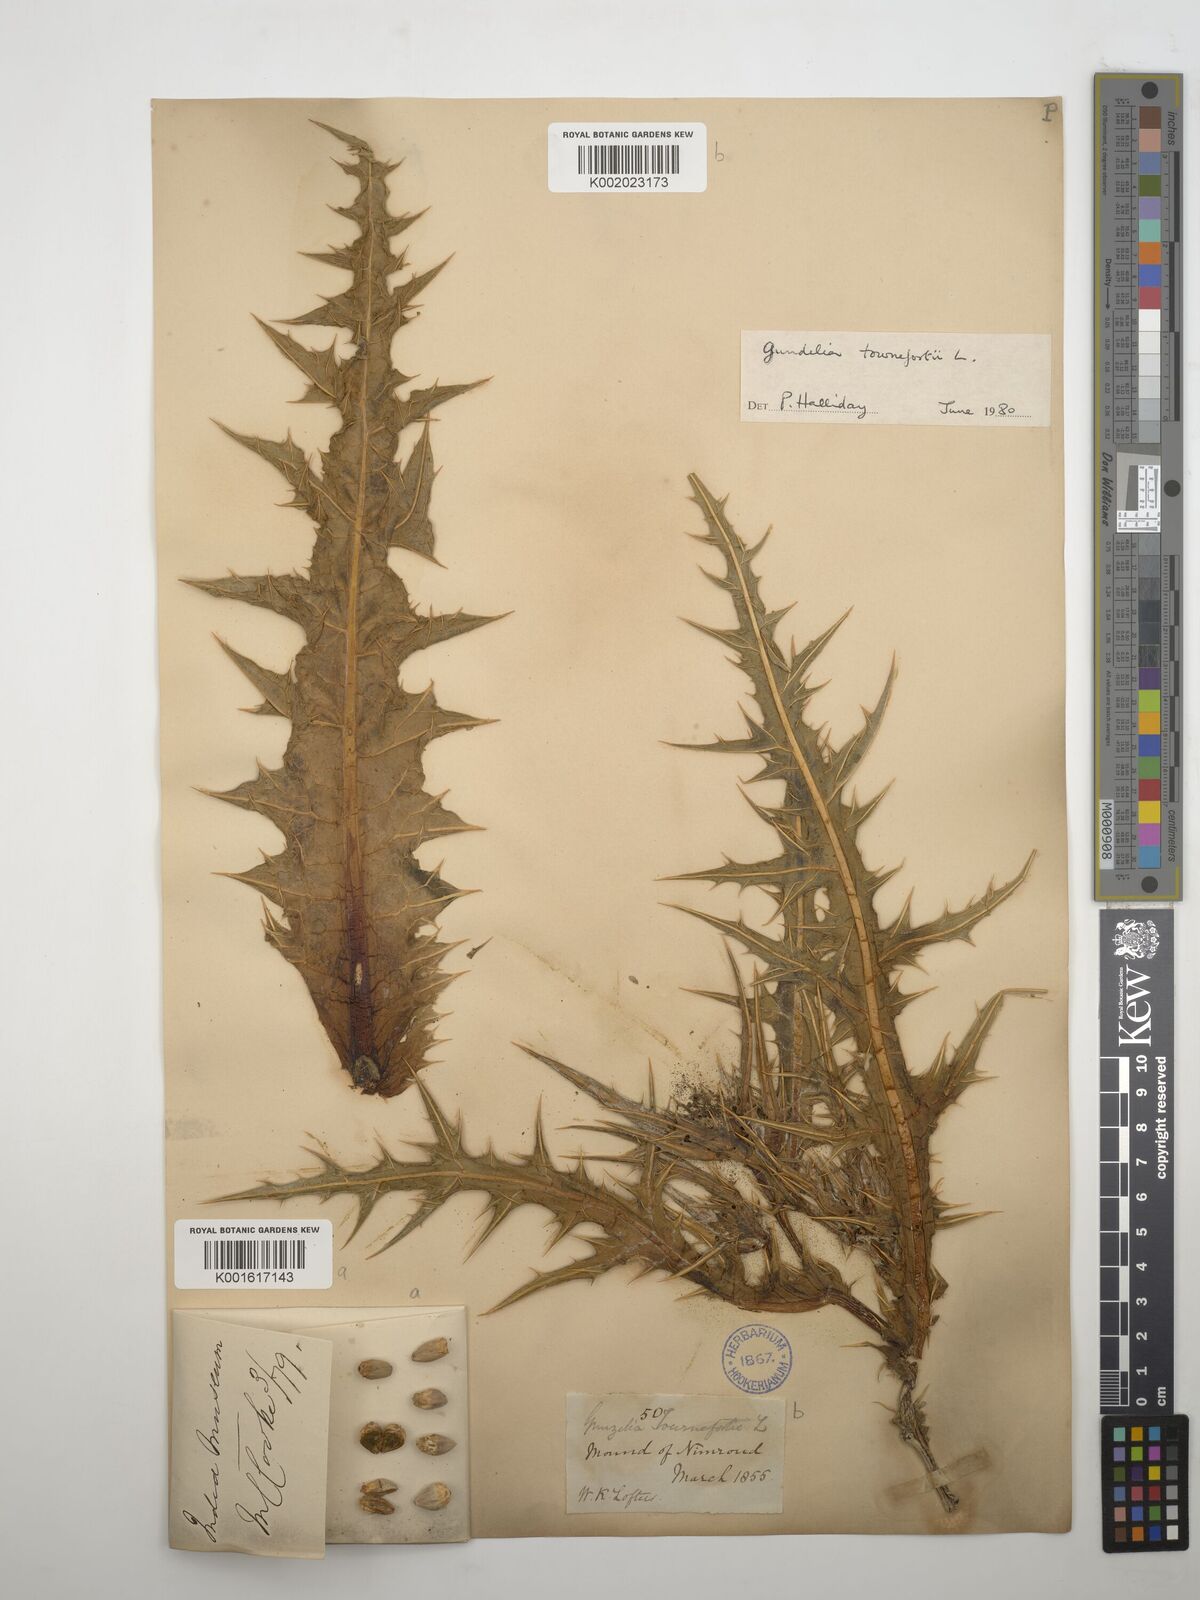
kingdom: Plantae
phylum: Tracheophyta
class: Magnoliopsida
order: Asterales
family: Asteraceae
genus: Gundelia
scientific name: Gundelia tournefortii
